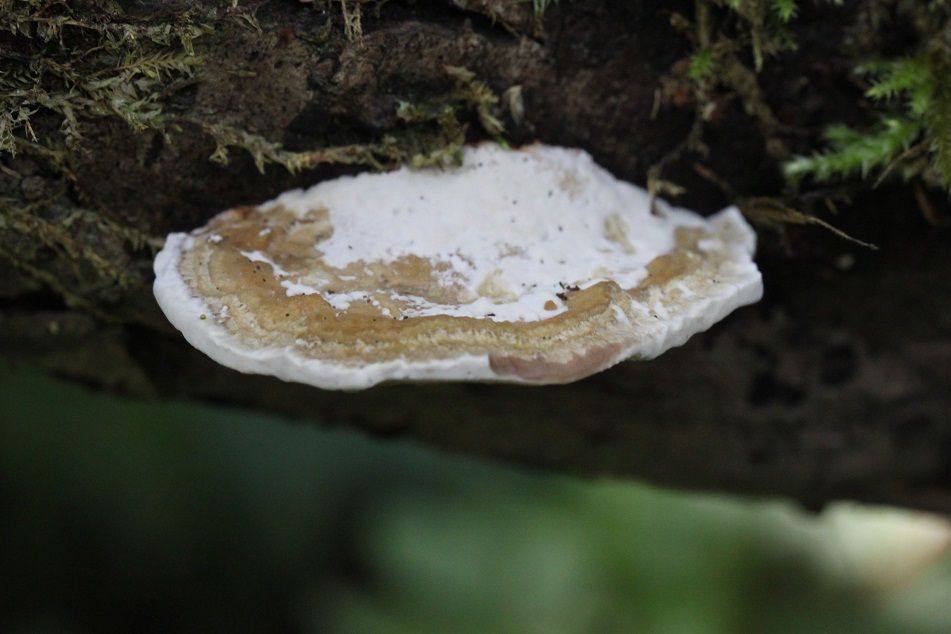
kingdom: Fungi
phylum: Basidiomycota
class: Agaricomycetes
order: Polyporales
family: Polyporaceae
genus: Daedaleopsis
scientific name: Daedaleopsis confragosa
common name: rødmende læderporesvamp
